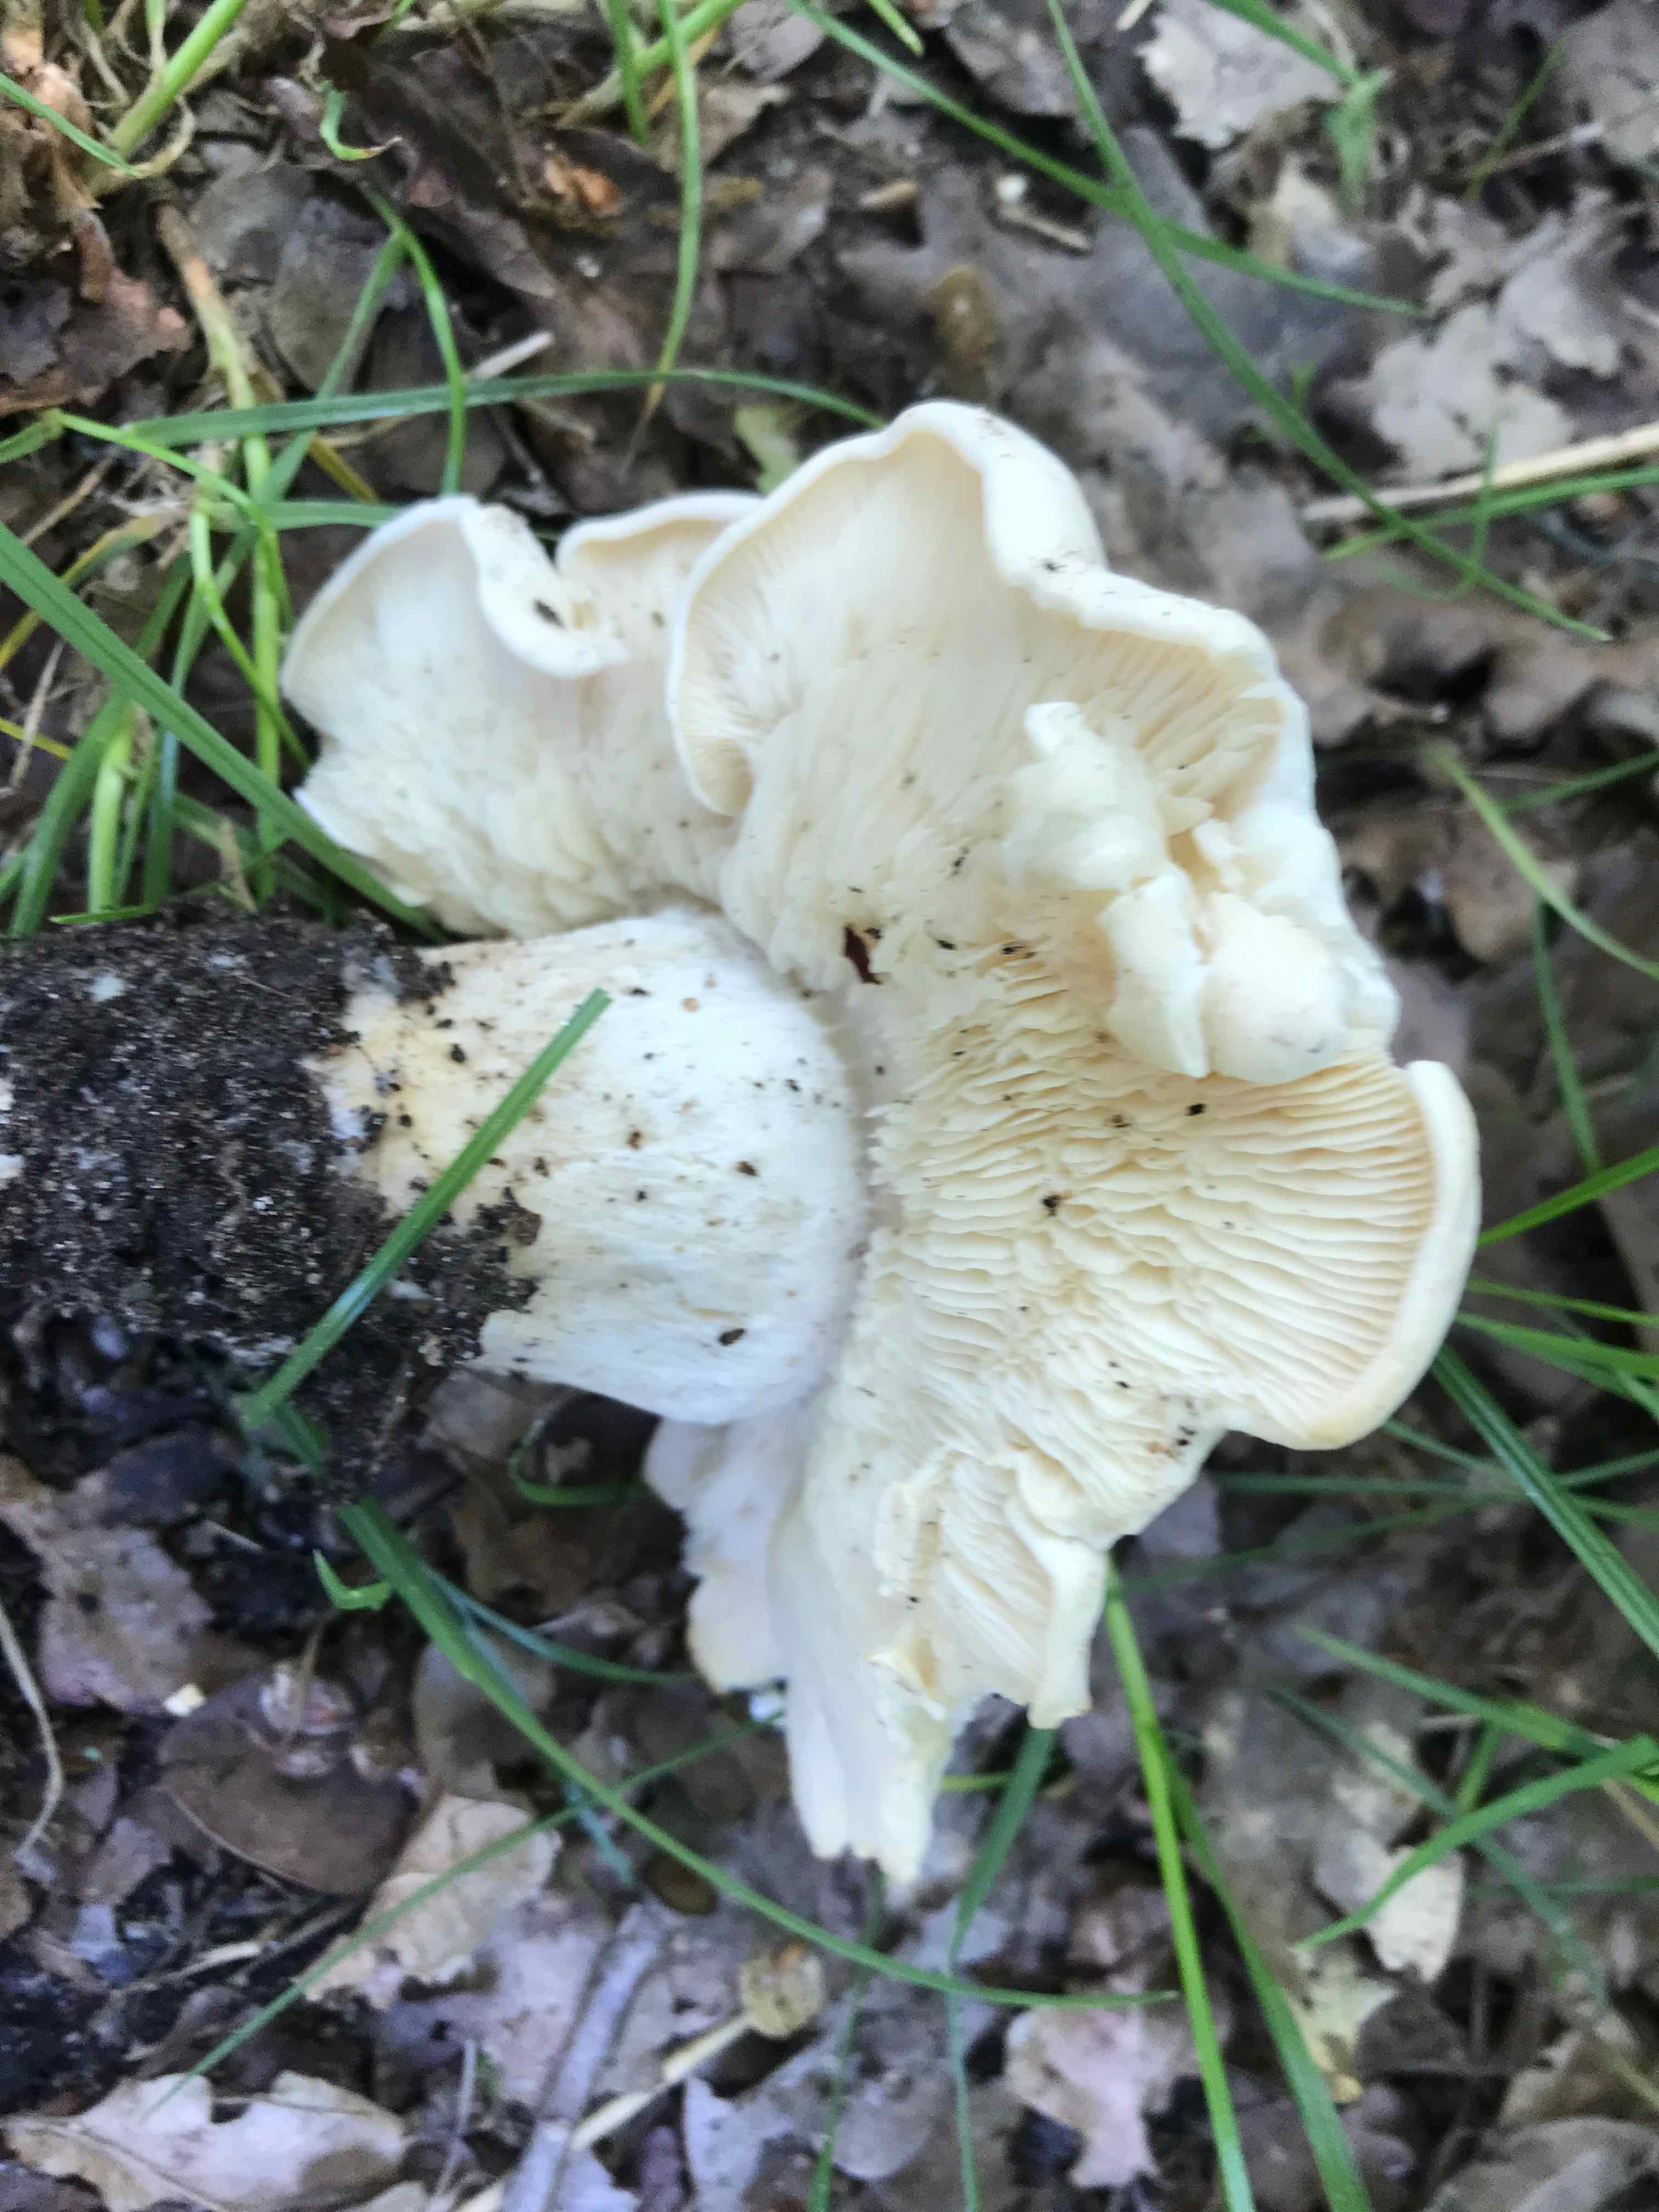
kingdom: Fungi
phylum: Basidiomycota
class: Agaricomycetes
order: Agaricales
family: Lyophyllaceae
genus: Calocybe
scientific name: Calocybe gambosa
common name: vårmusseron
